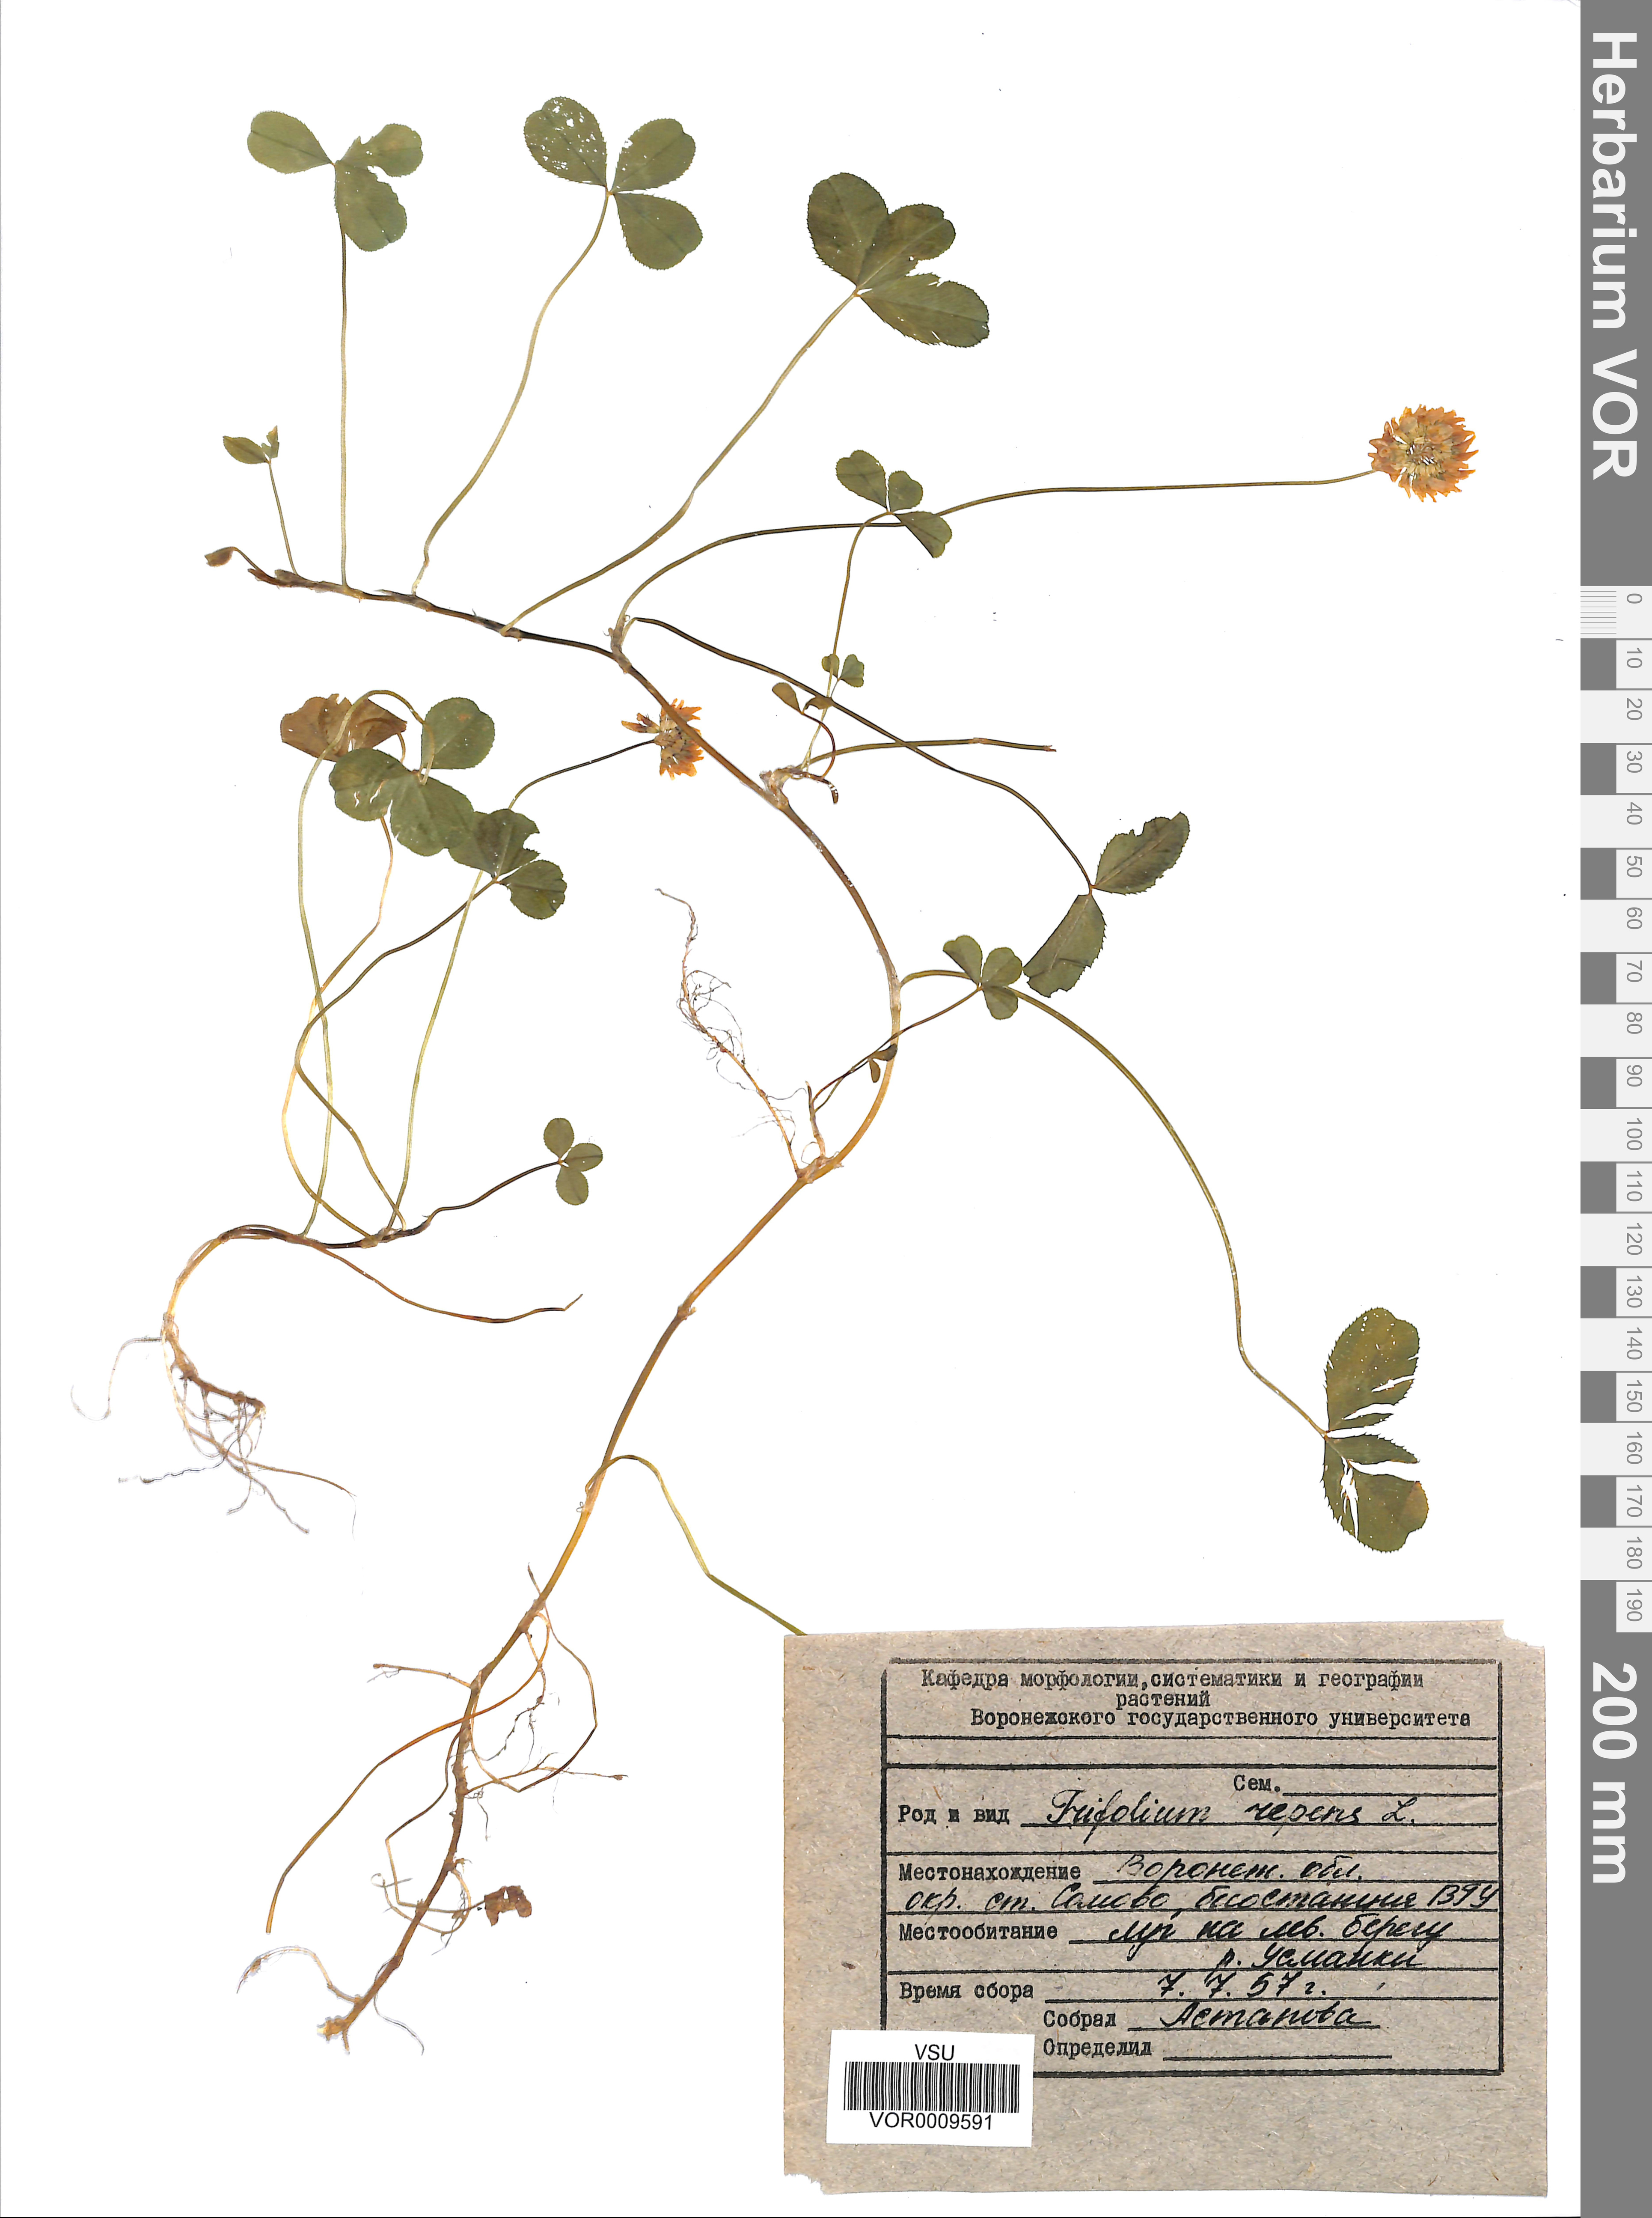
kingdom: Plantae
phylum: Tracheophyta
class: Magnoliopsida
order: Fabales
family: Fabaceae
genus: Trifolium
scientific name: Trifolium repens
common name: White clover
